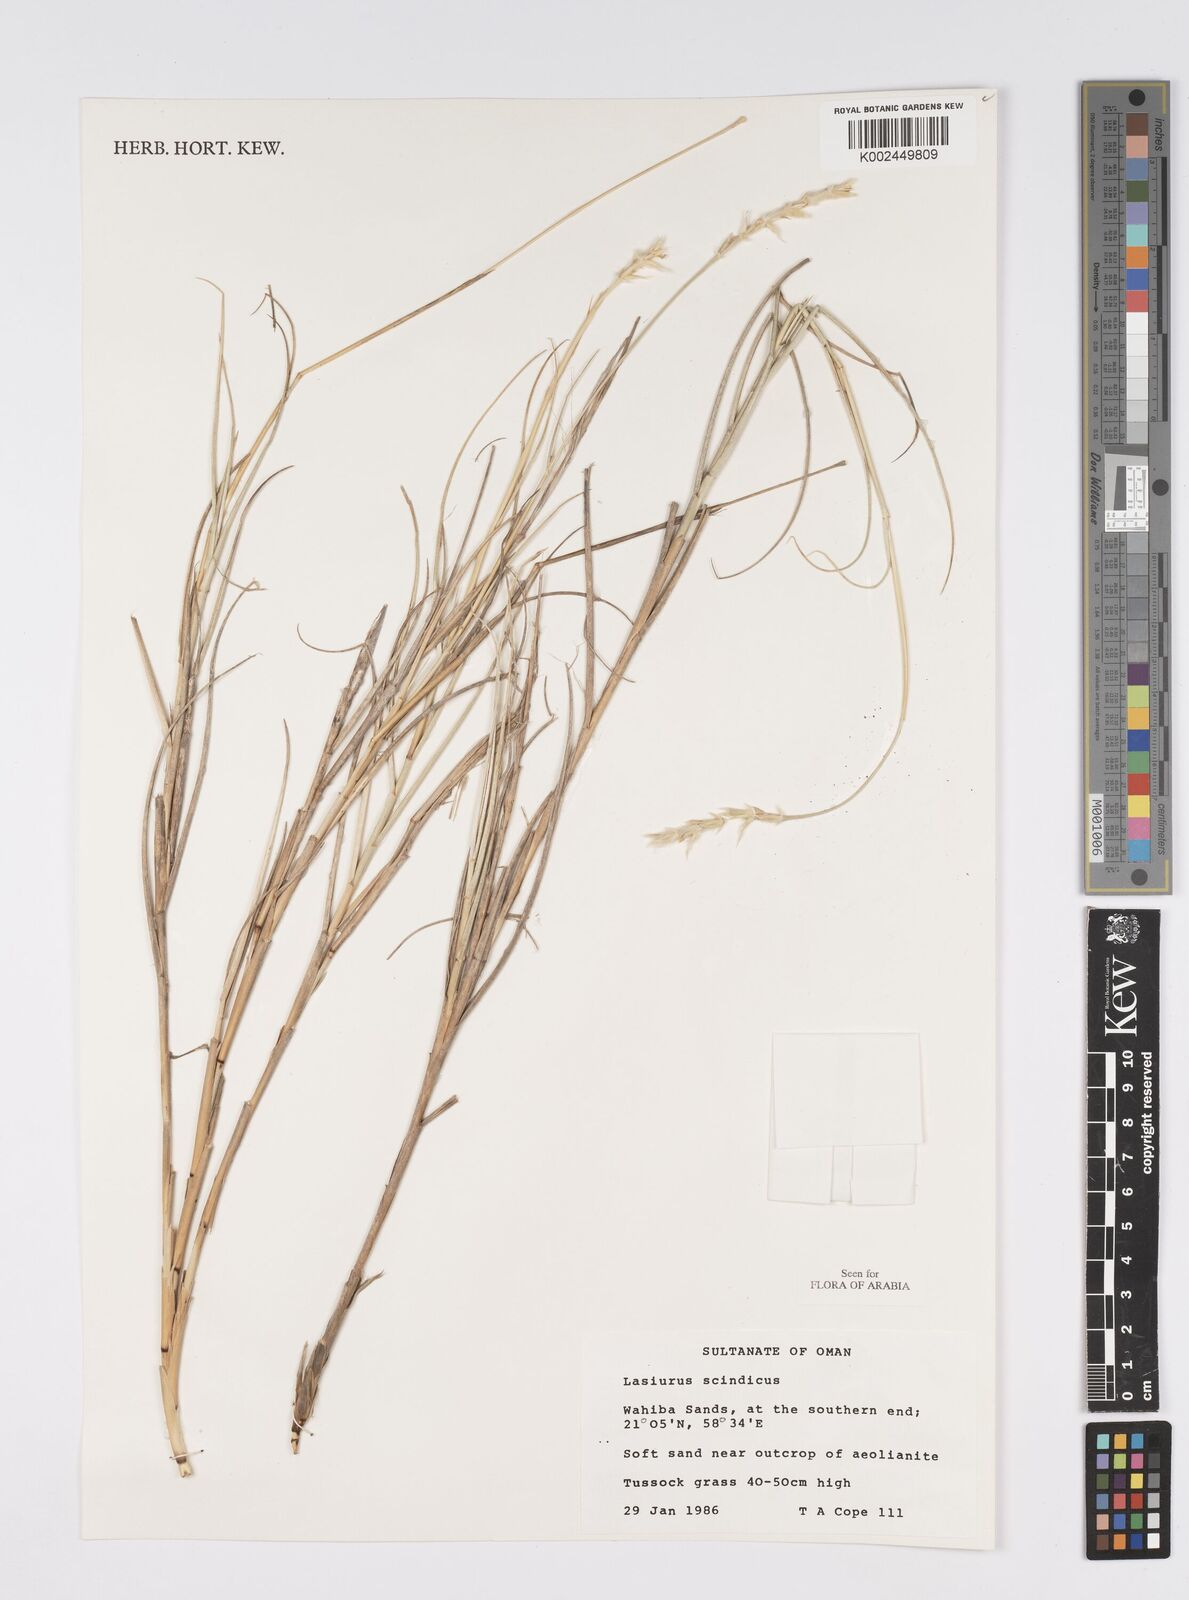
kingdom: Plantae
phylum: Tracheophyta
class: Liliopsida
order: Poales
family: Poaceae
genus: Lasiurus
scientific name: Lasiurus scindicus
